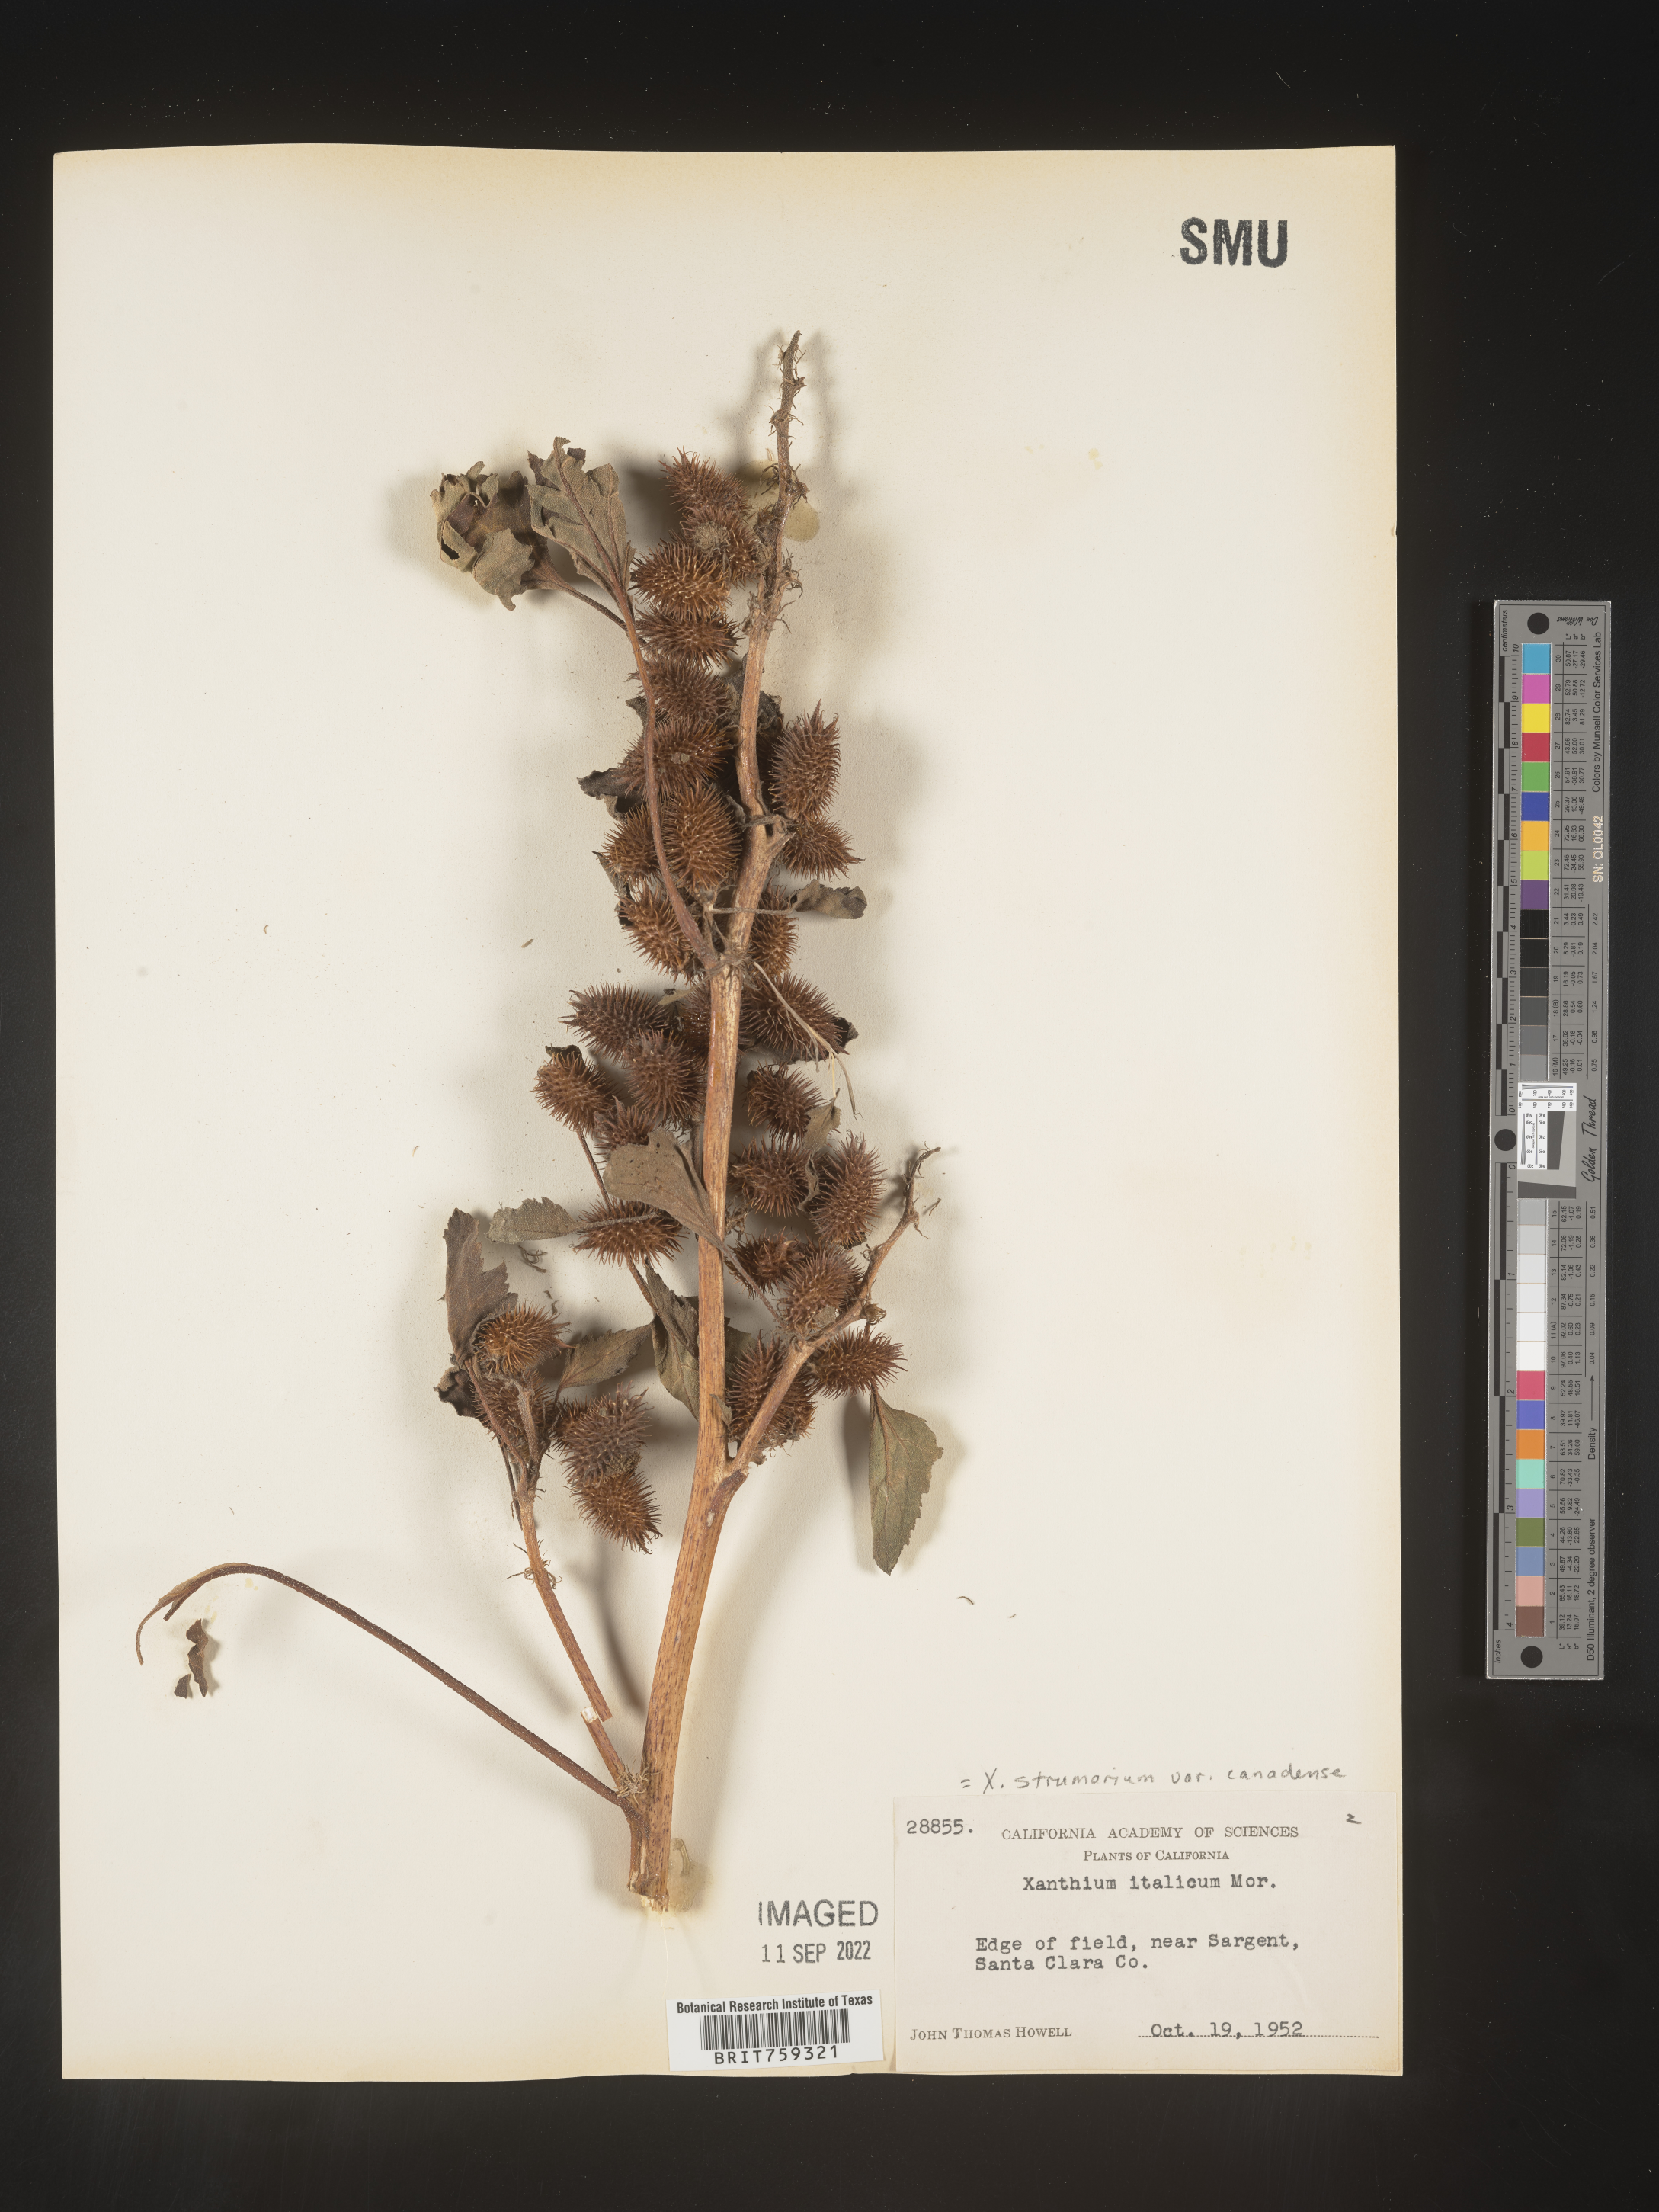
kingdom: Plantae
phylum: Tracheophyta
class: Magnoliopsida
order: Asterales
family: Asteraceae
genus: Xanthium
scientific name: Xanthium orientale
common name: Californian burr
